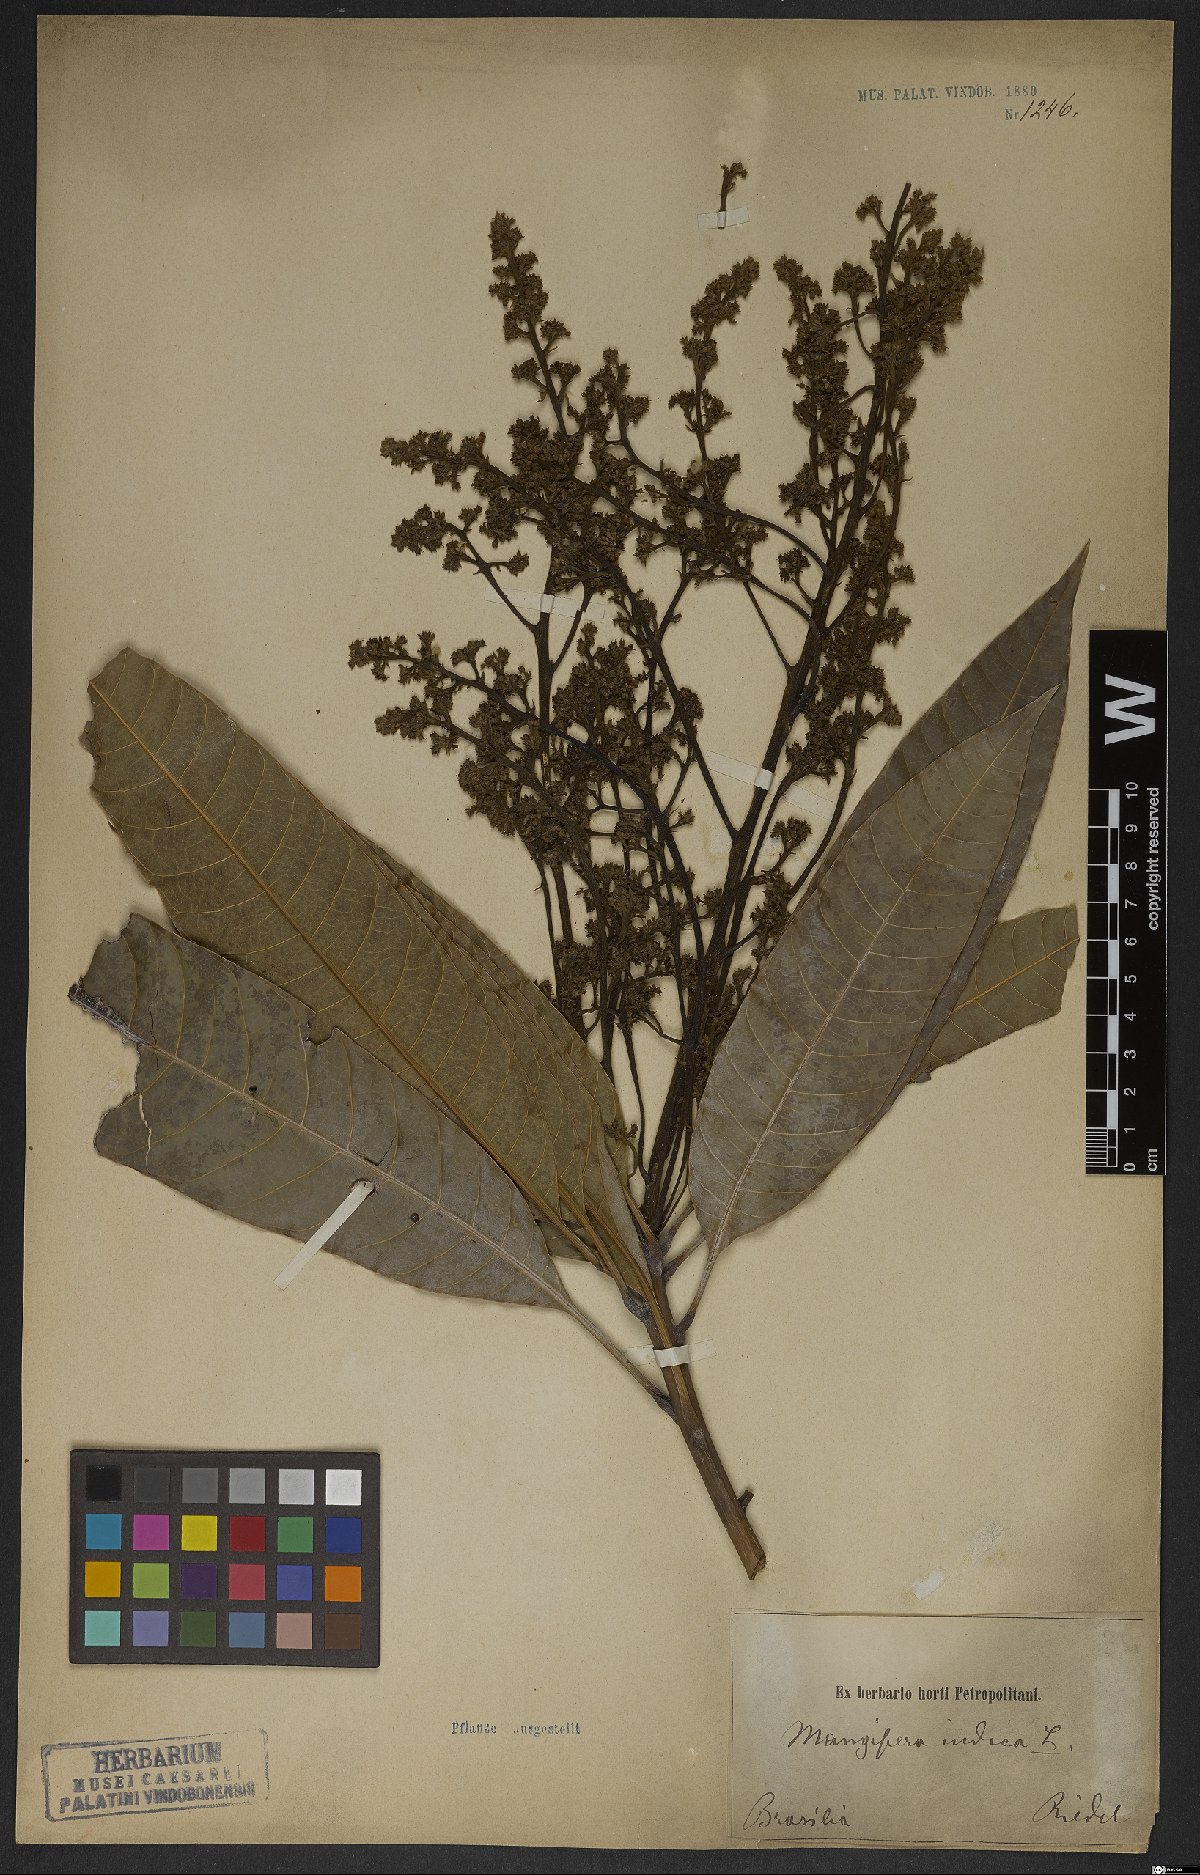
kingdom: Plantae
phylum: Tracheophyta
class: Magnoliopsida
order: Sapindales
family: Anacardiaceae
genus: Mangifera
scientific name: Mangifera indica
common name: Mango
